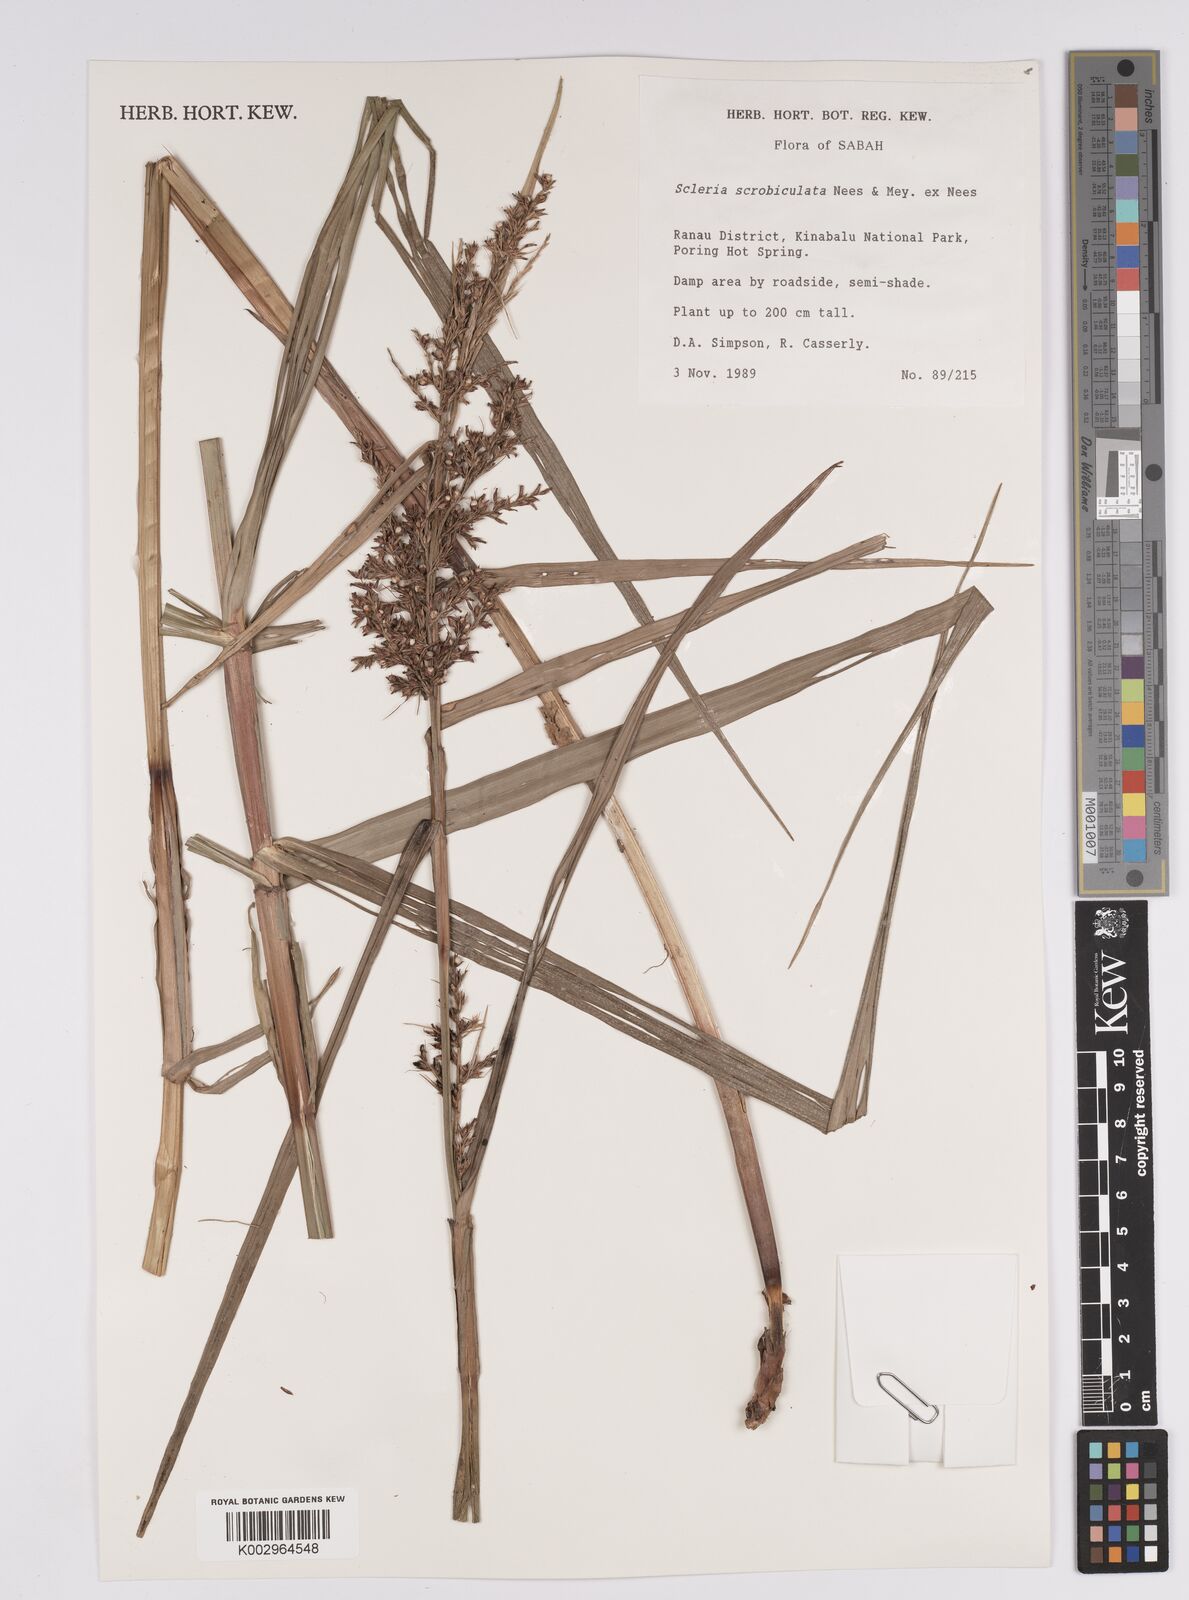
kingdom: Plantae
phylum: Tracheophyta
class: Liliopsida
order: Poales
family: Cyperaceae
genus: Scleria
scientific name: Scleria scrobiculata
